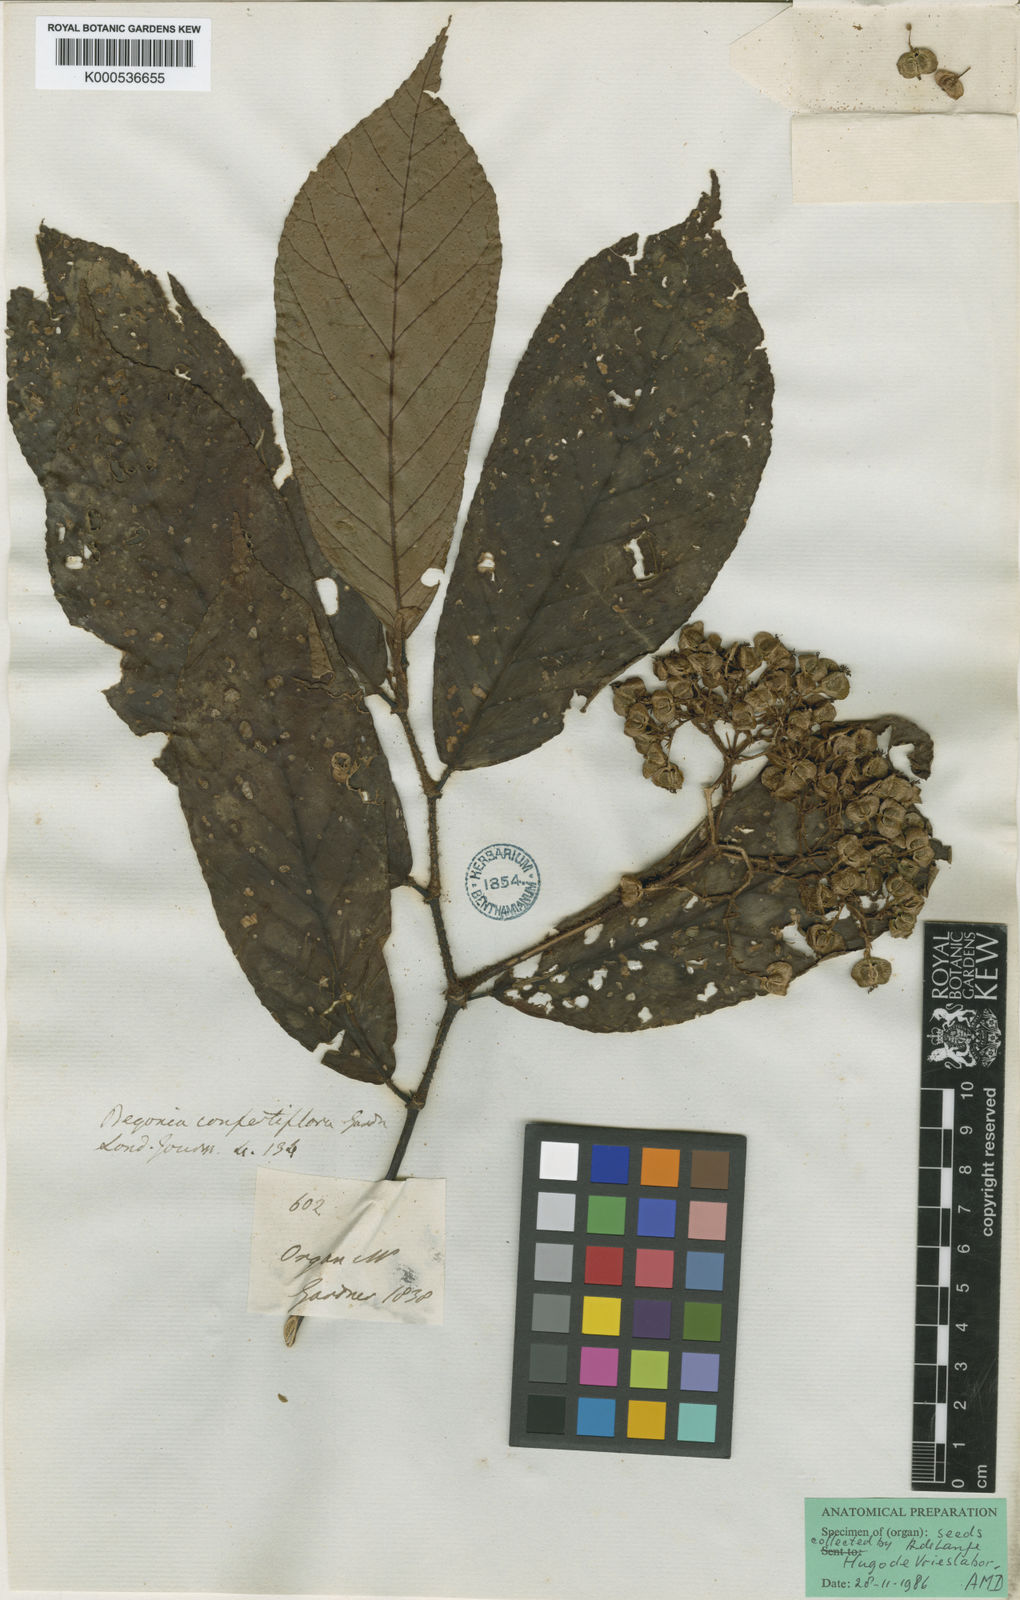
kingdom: Plantae
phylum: Tracheophyta
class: Magnoliopsida
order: Cucurbitales
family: Begoniaceae
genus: Begonia
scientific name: Begonia arborescens
